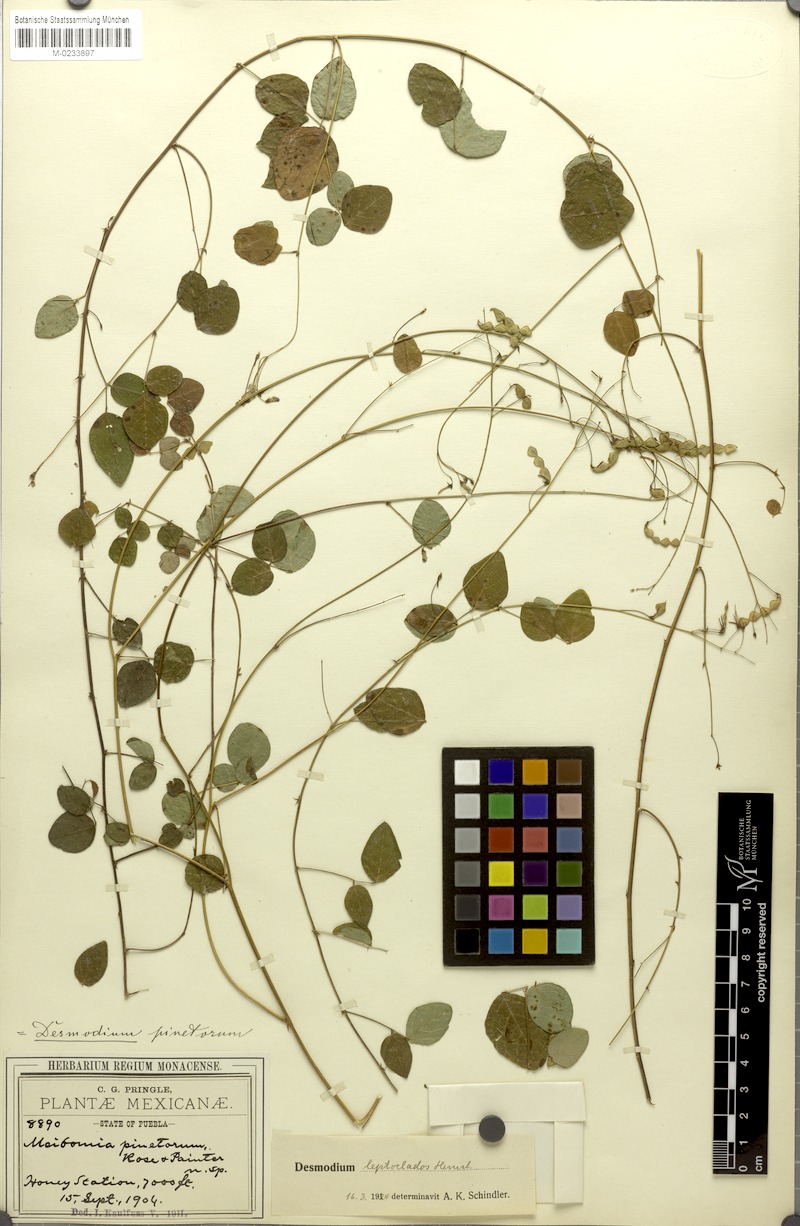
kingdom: Plantae
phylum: Tracheophyta
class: Magnoliopsida
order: Fabales
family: Fabaceae
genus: Desmodium
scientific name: Desmodium leptoclados
